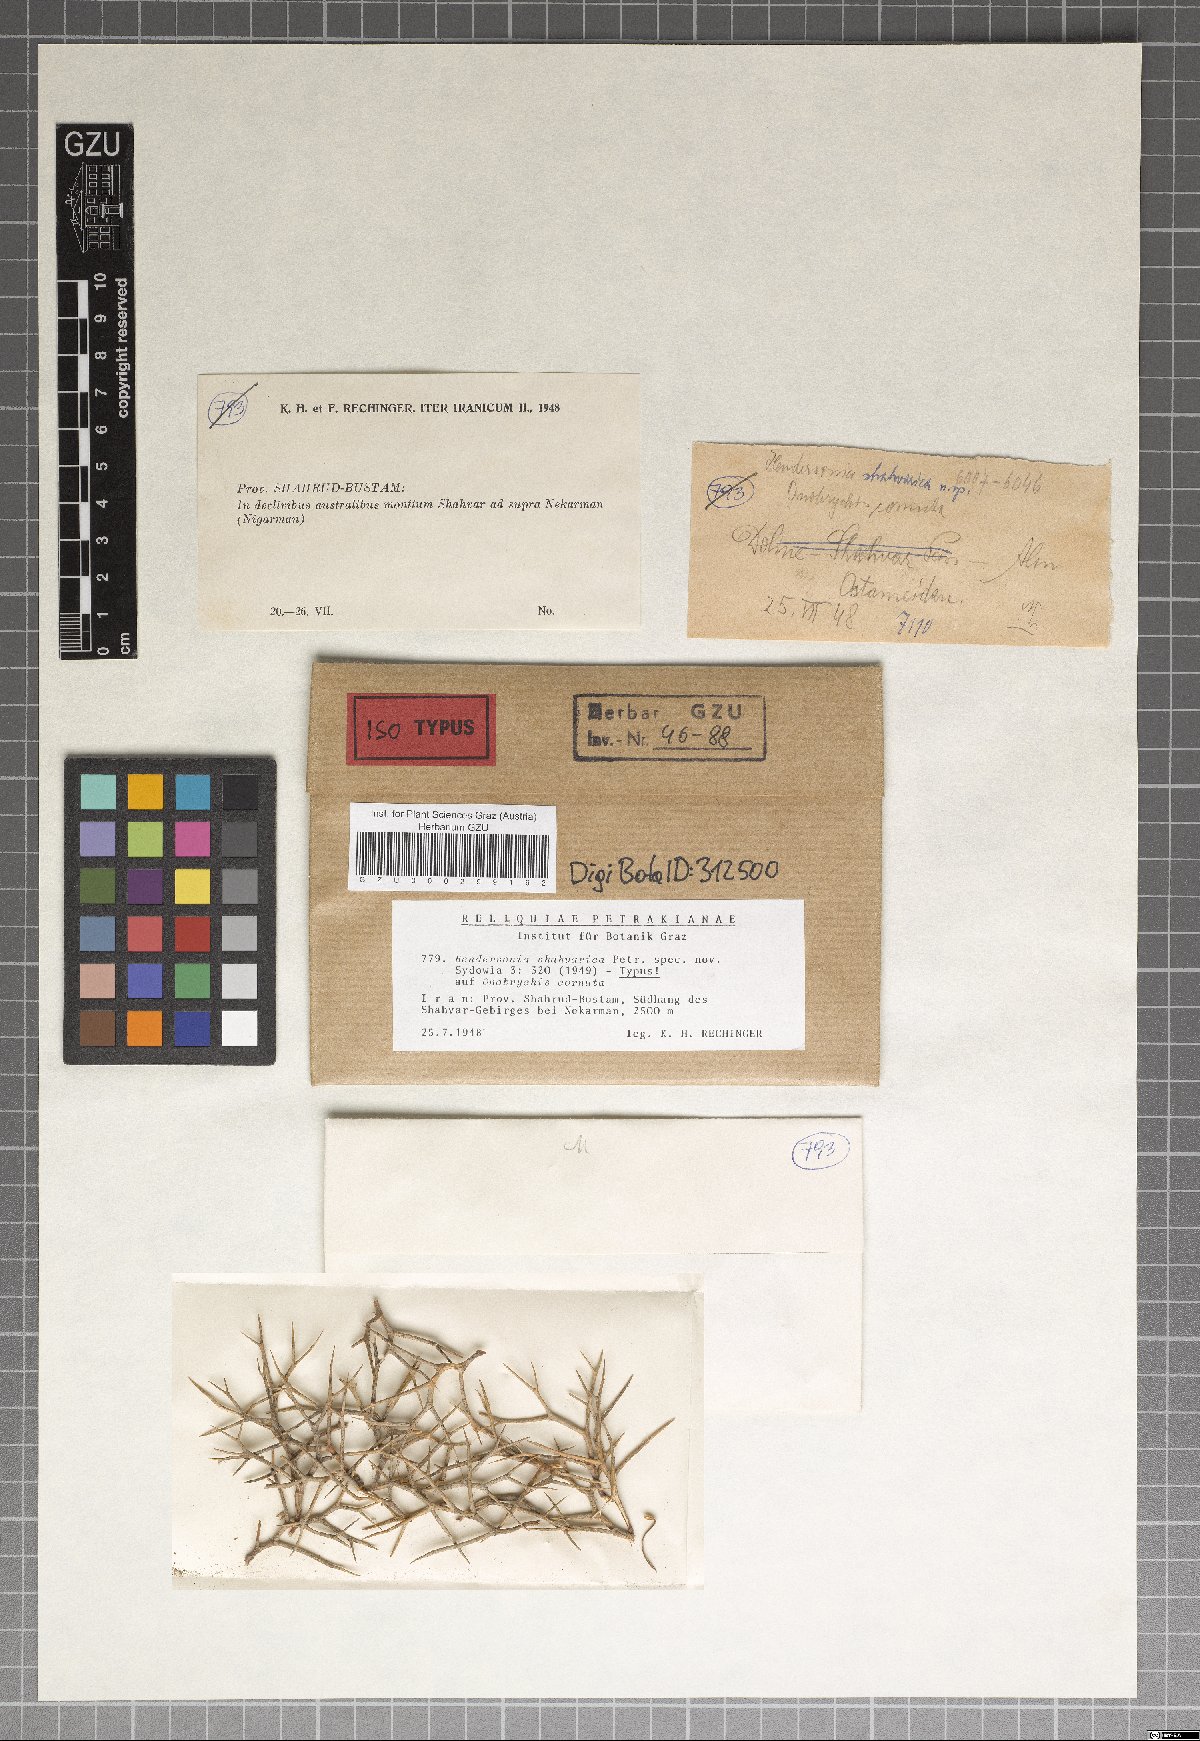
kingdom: Fungi
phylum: Ascomycota
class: Dothideomycetes
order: Pleosporales
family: Phaeosphaeriaceae
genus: Hendersonia
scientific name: Hendersonia shahvarica
